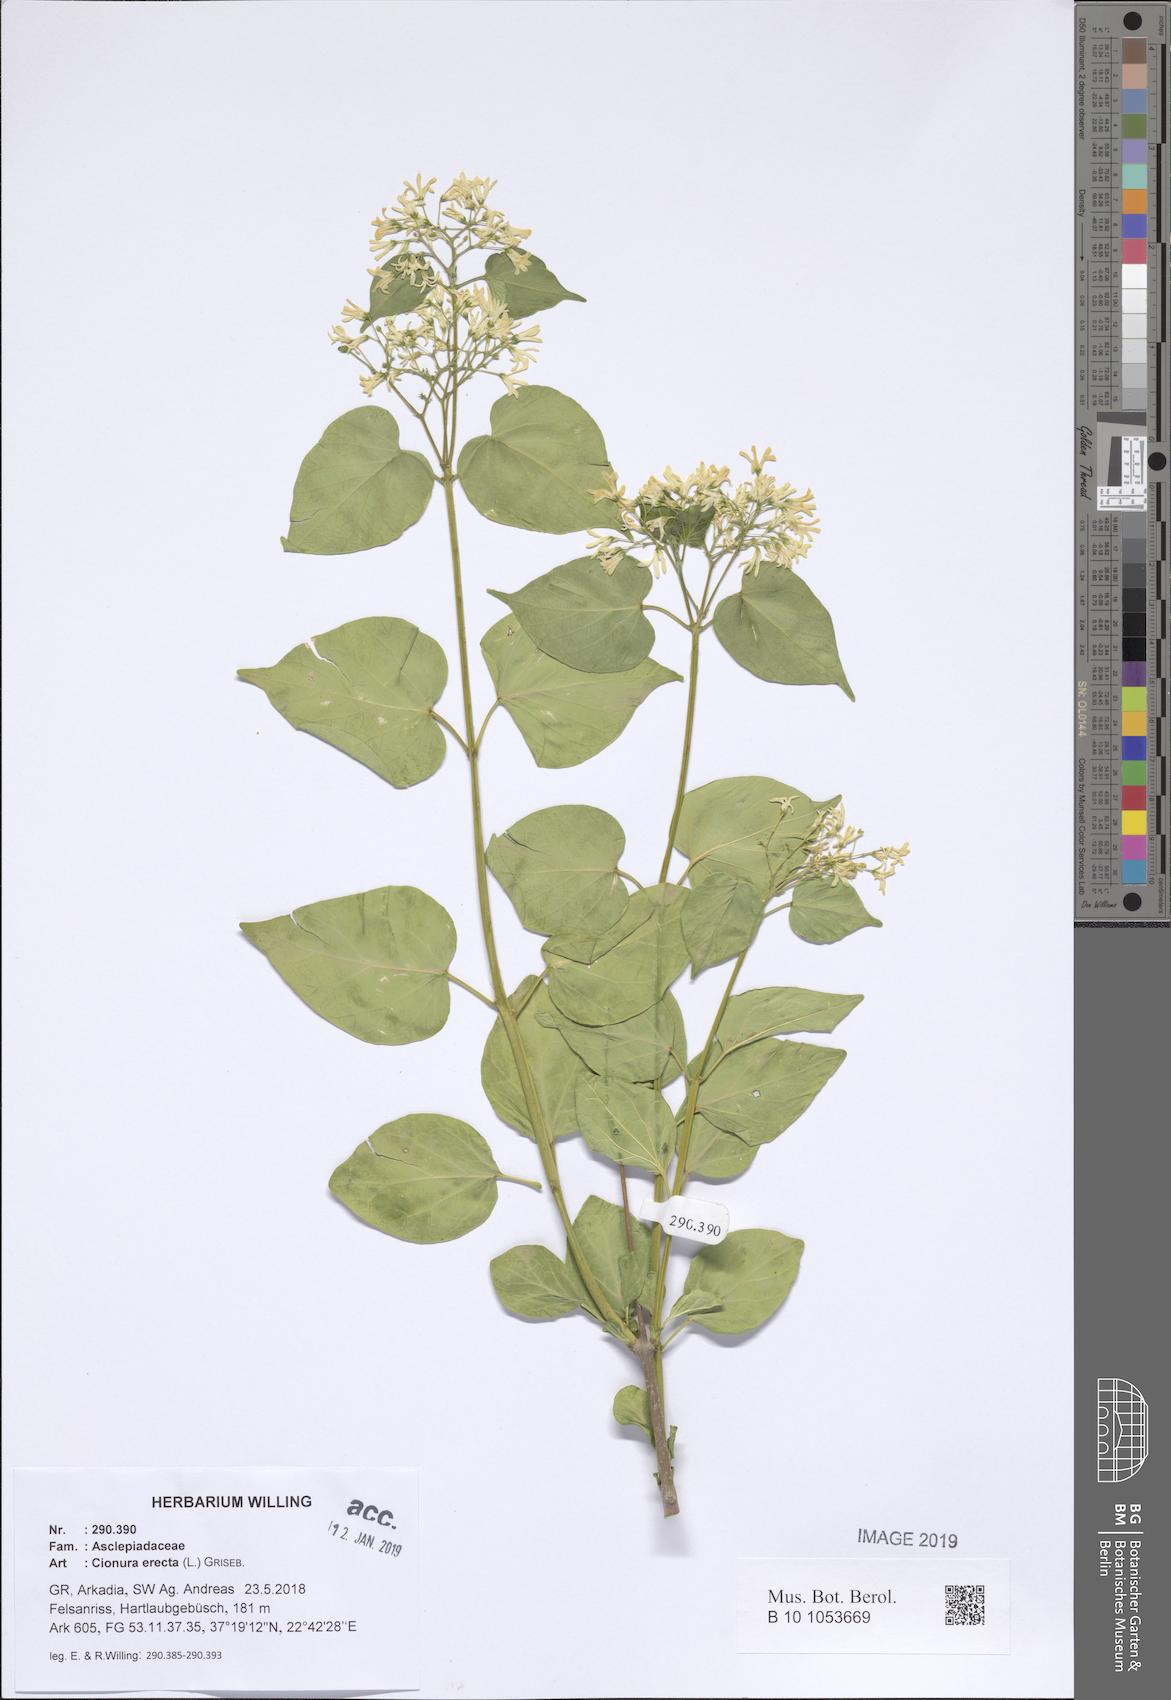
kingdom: Plantae
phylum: Tracheophyta
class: Magnoliopsida
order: Gentianales
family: Apocynaceae
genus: Cionura
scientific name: Cionura erecta
